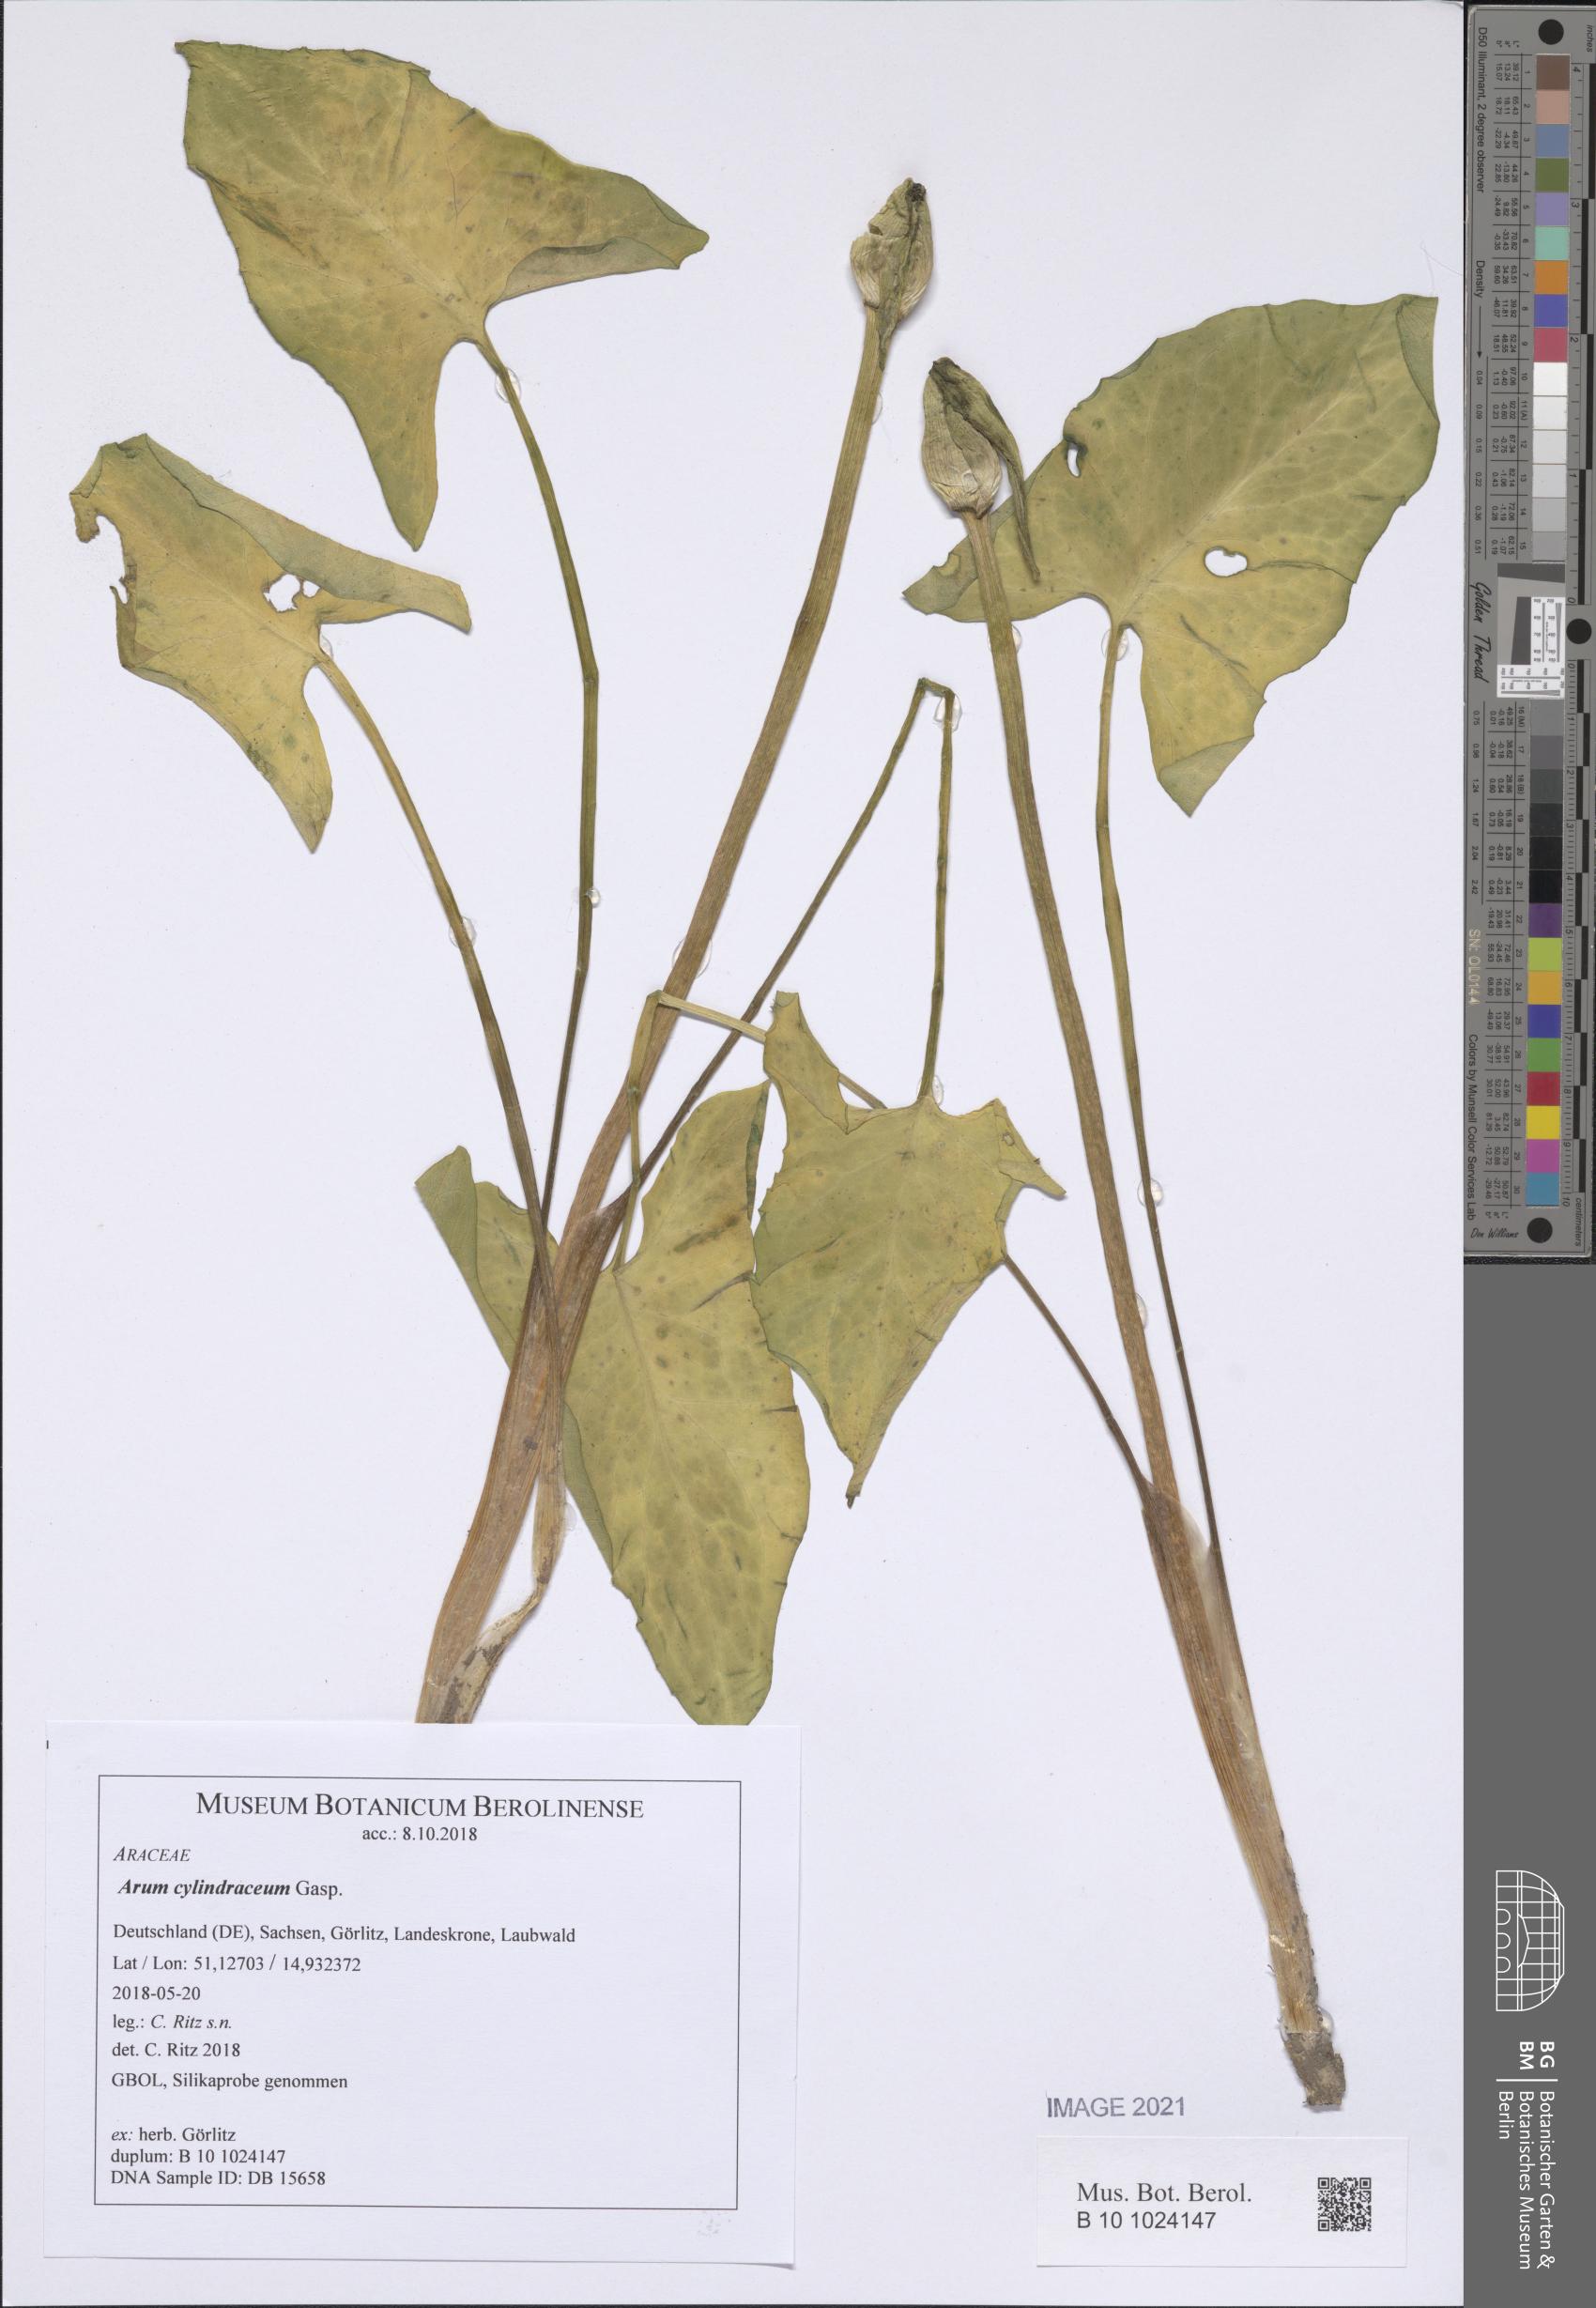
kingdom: Plantae
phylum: Tracheophyta
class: Liliopsida
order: Alismatales
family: Araceae
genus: Arum
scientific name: Arum cylindraceum
